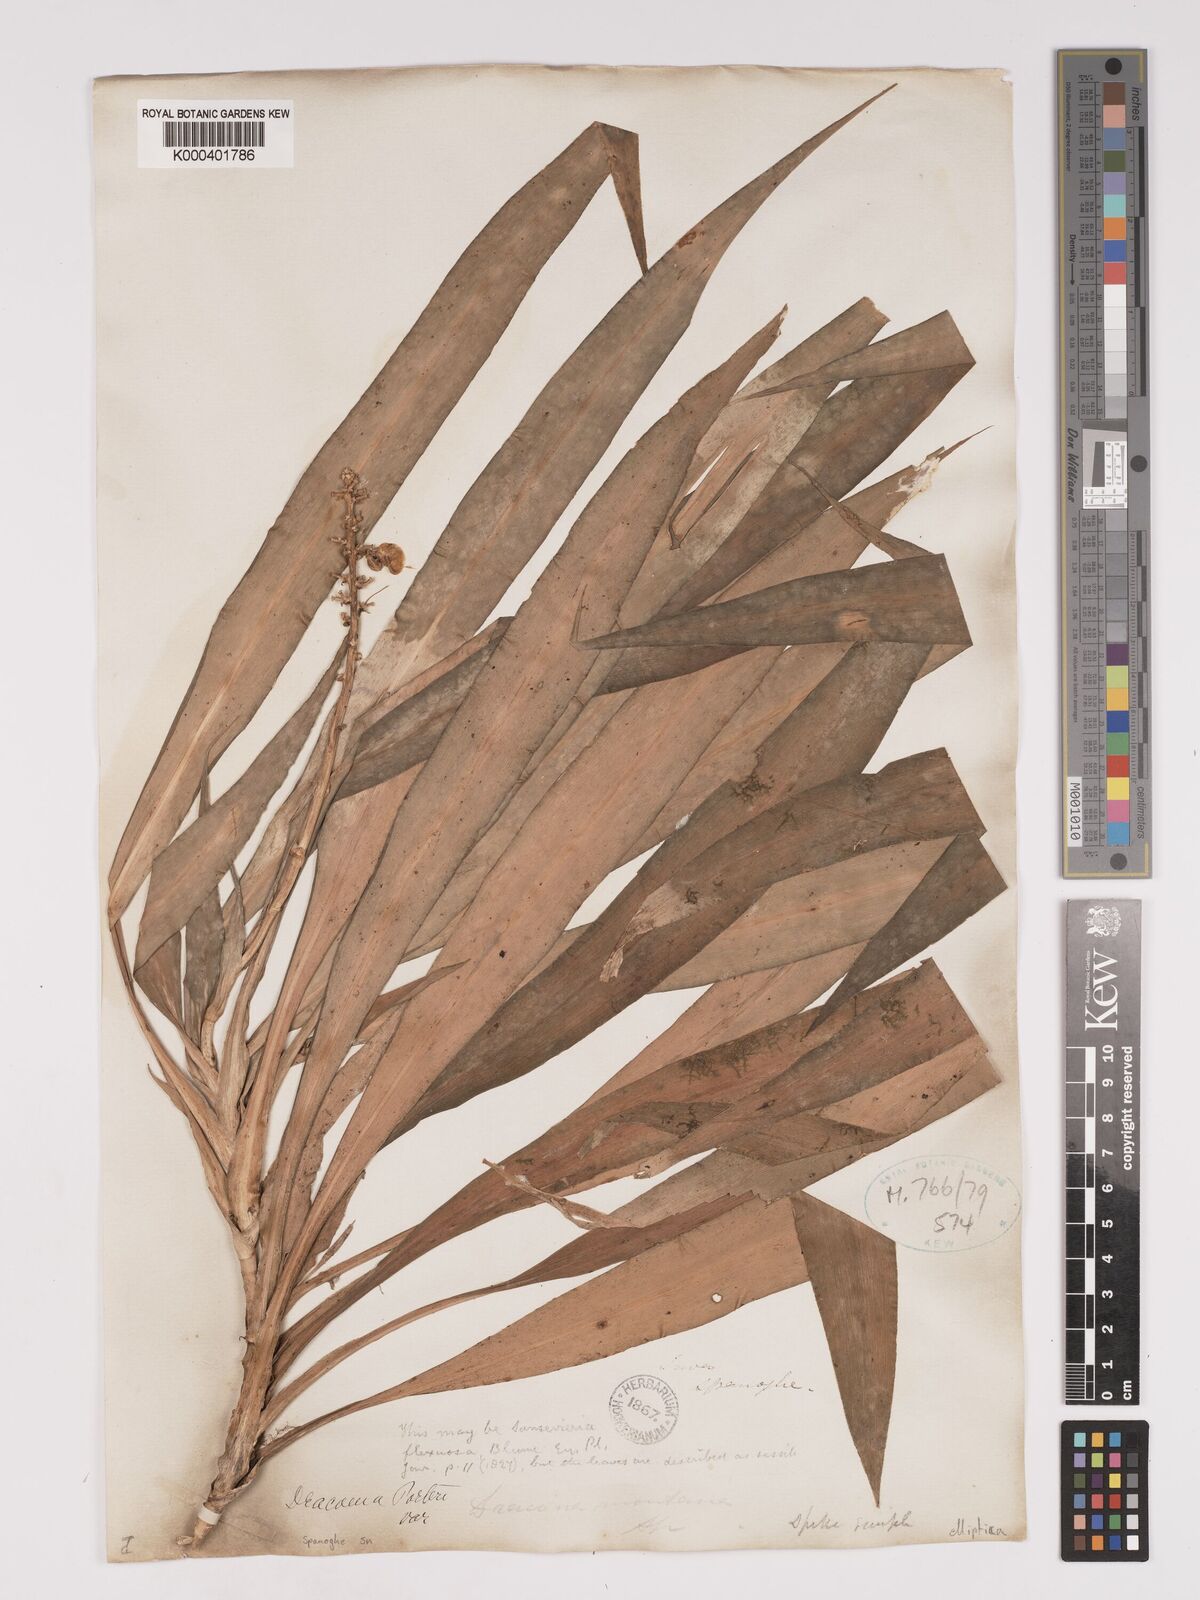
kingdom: Plantae
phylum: Tracheophyta
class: Liliopsida
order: Asparagales
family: Asparagaceae
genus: Dracaena
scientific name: Dracaena porteri
